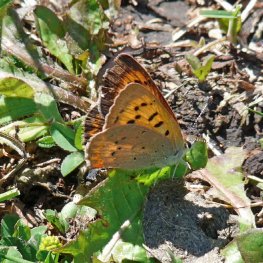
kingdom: Animalia
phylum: Arthropoda
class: Insecta
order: Lepidoptera
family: Sesiidae
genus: Sesia
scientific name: Sesia Lycaena helloides
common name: Purplish Copper
